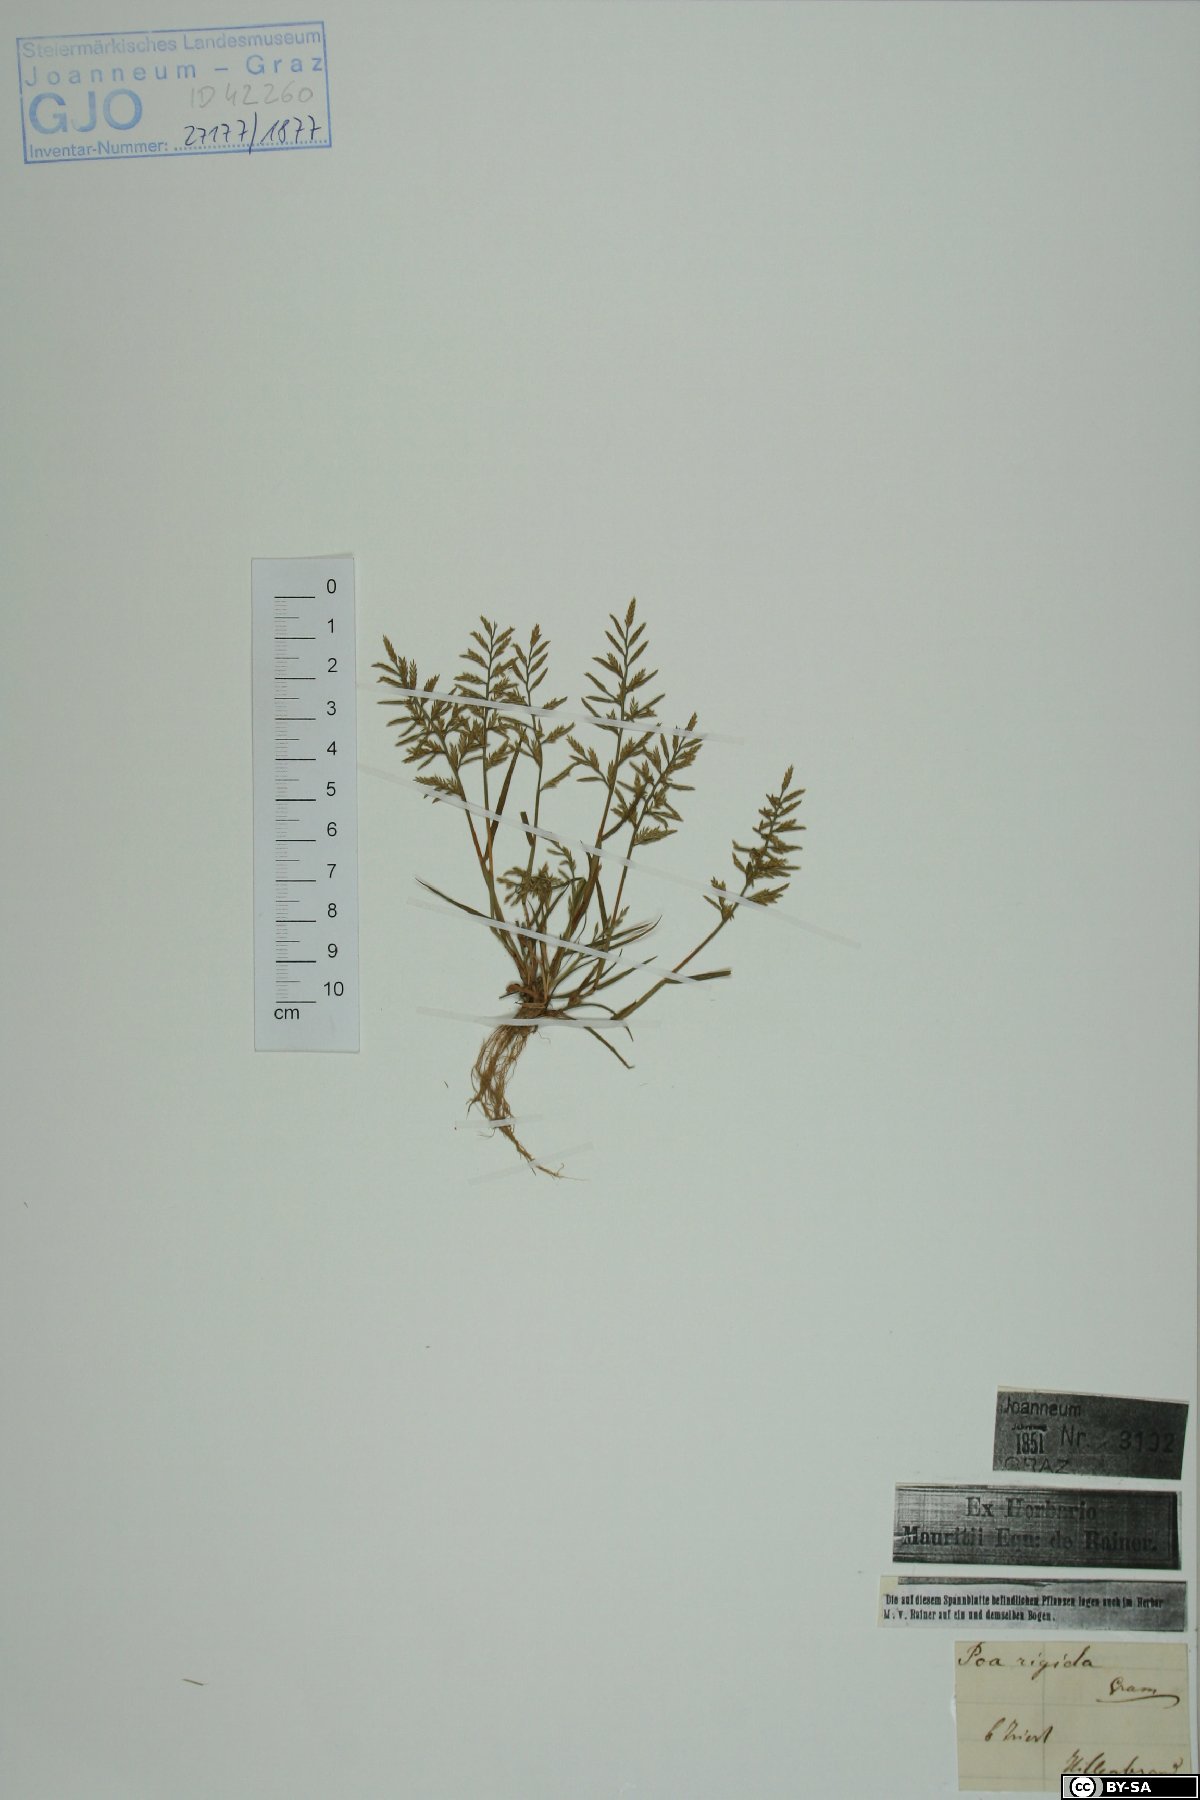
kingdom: Plantae
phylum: Tracheophyta
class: Liliopsida
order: Poales
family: Poaceae
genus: Catapodium
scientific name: Catapodium rigidum
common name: Fern-grass
